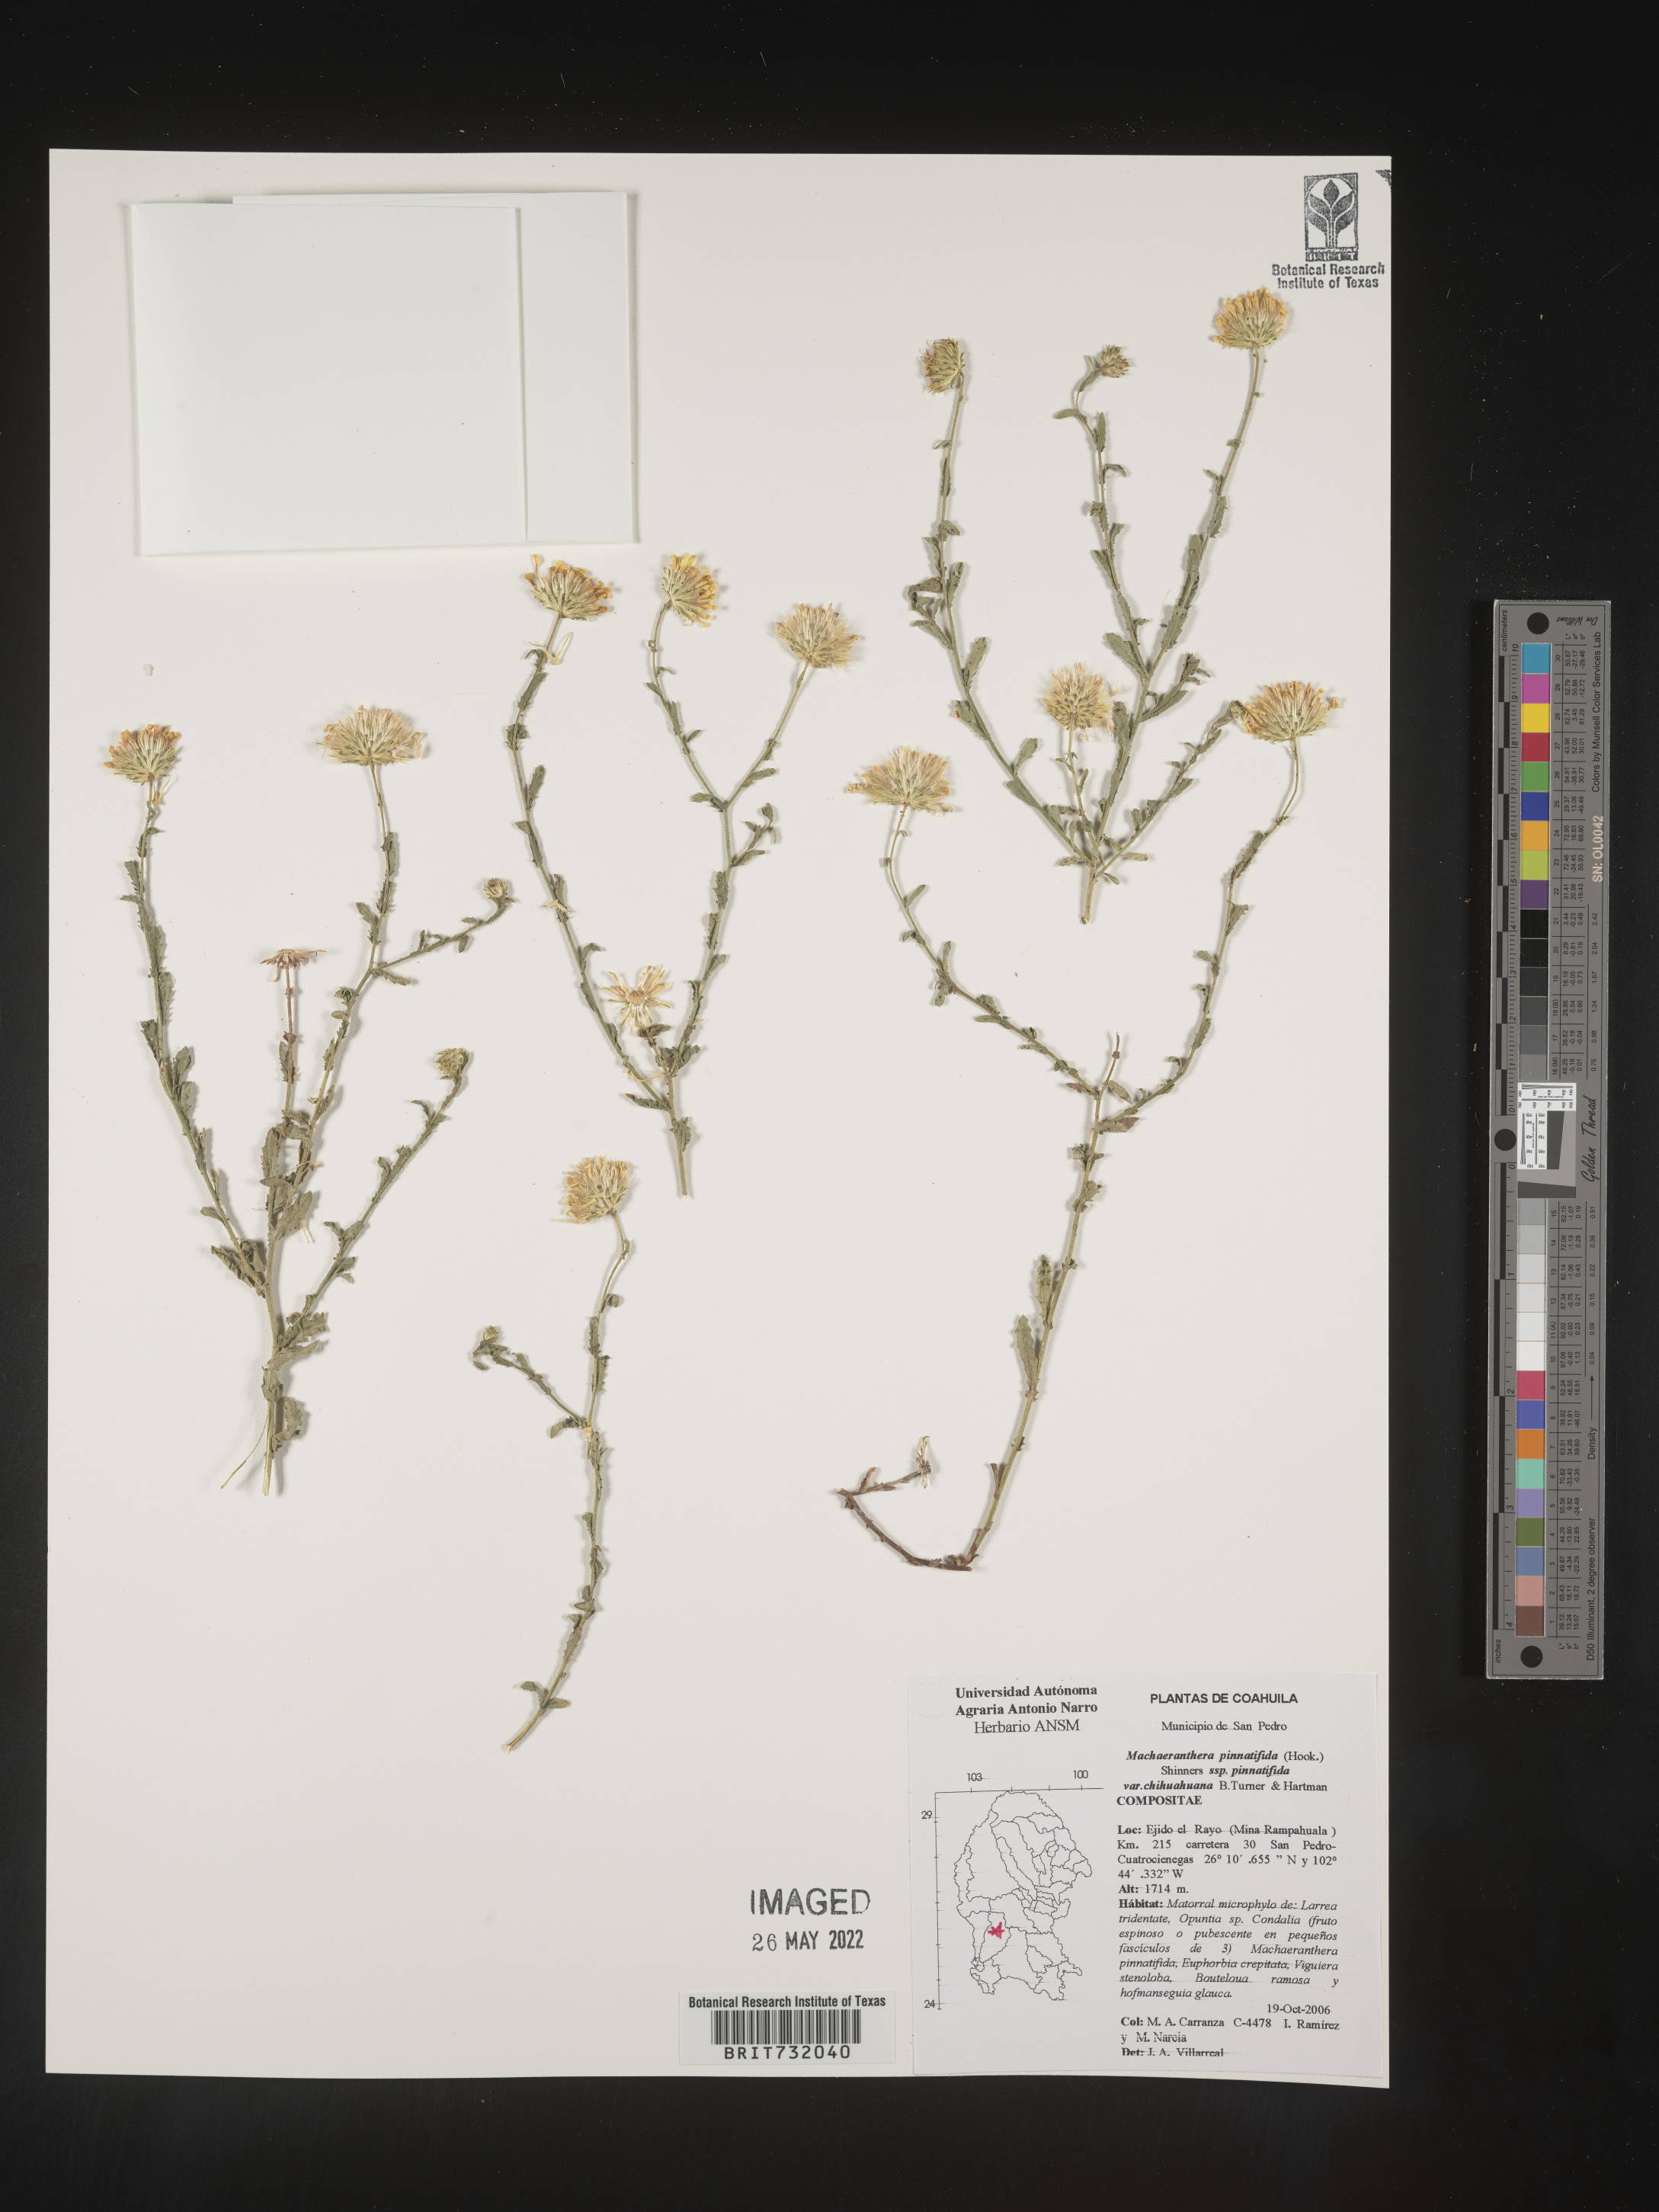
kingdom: Plantae
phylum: Tracheophyta
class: Magnoliopsida
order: Asterales
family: Asteraceae
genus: Xanthisma
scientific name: Xanthisma spinulosum
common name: Spiny goldenweed
